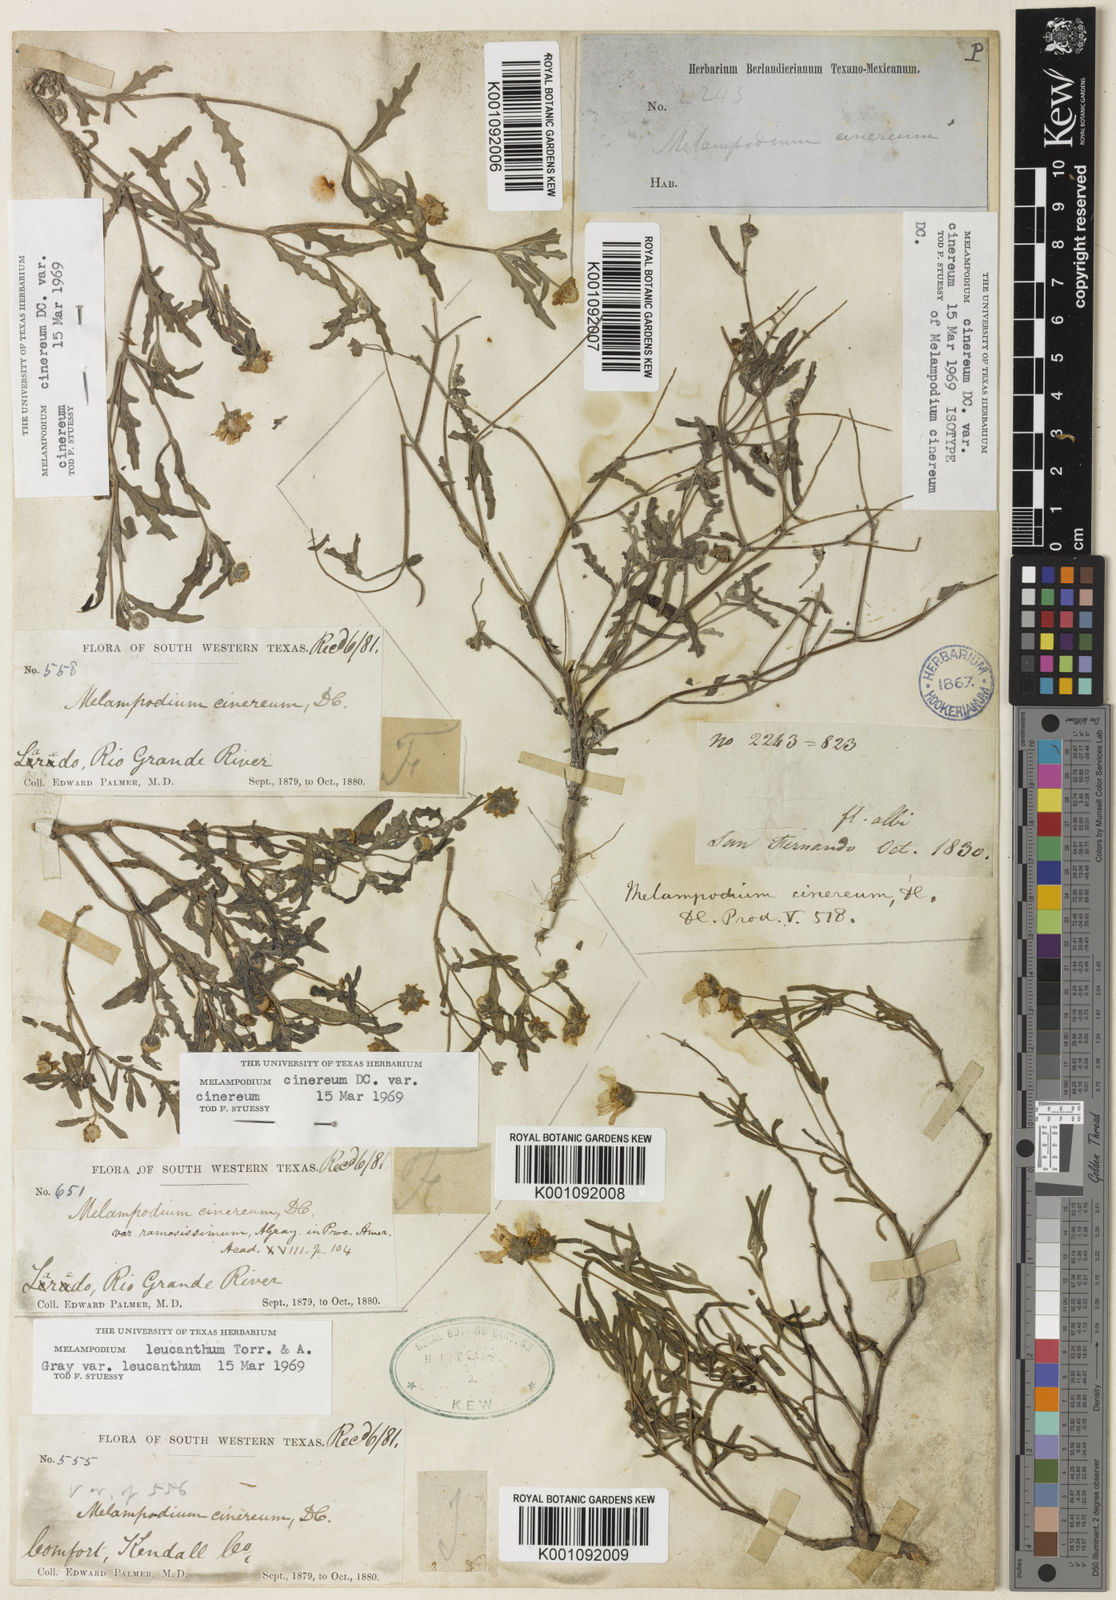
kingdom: Plantae
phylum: Tracheophyta
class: Magnoliopsida
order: Asterales
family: Asteraceae
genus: Melampodium
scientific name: Melampodium cinereum
